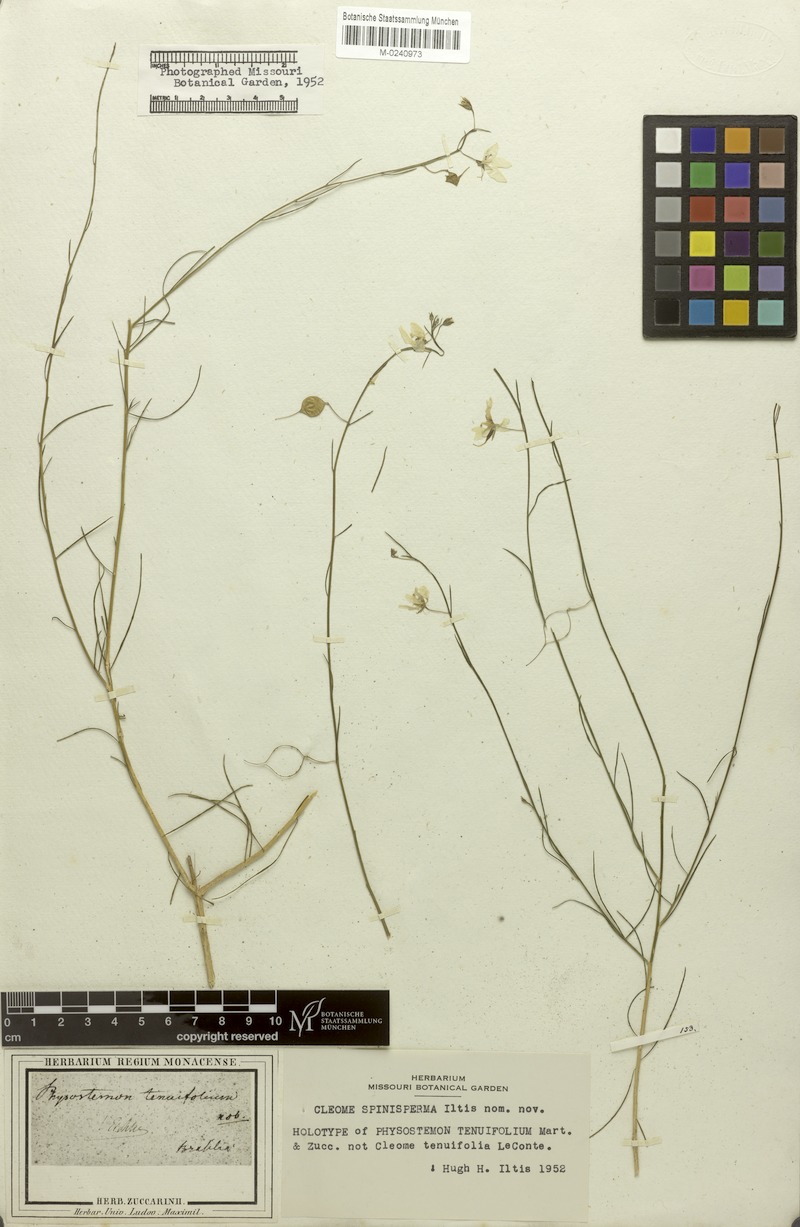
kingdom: Plantae
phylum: Tracheophyta
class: Magnoliopsida
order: Brassicales
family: Cleomaceae
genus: Physostemon
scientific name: Physostemon tenuifolius
